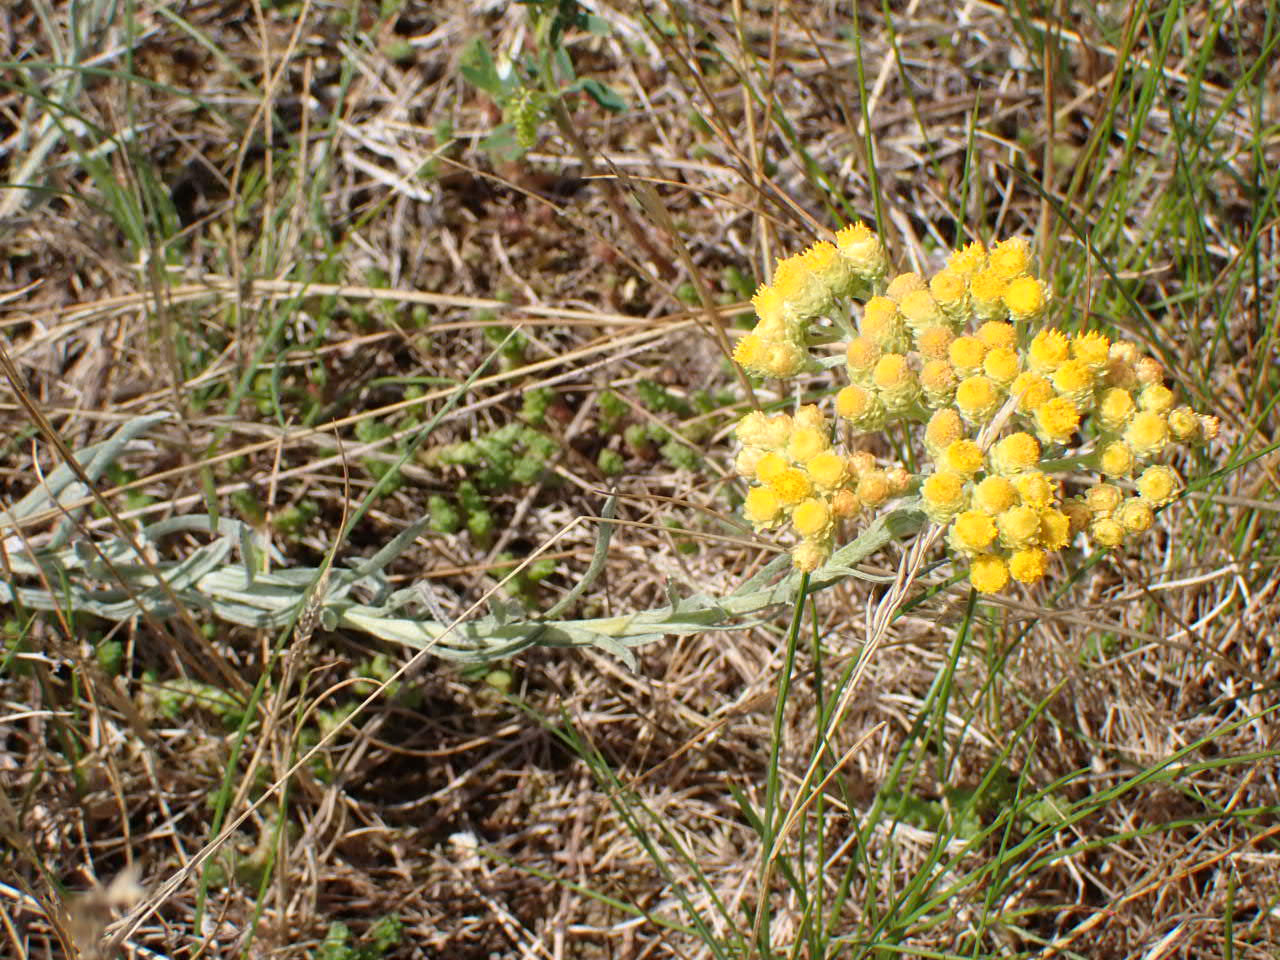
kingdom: Plantae
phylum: Tracheophyta
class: Magnoliopsida
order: Asterales
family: Asteraceae
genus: Helichrysum
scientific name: Helichrysum arenarium
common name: Gul evighedsblomst
